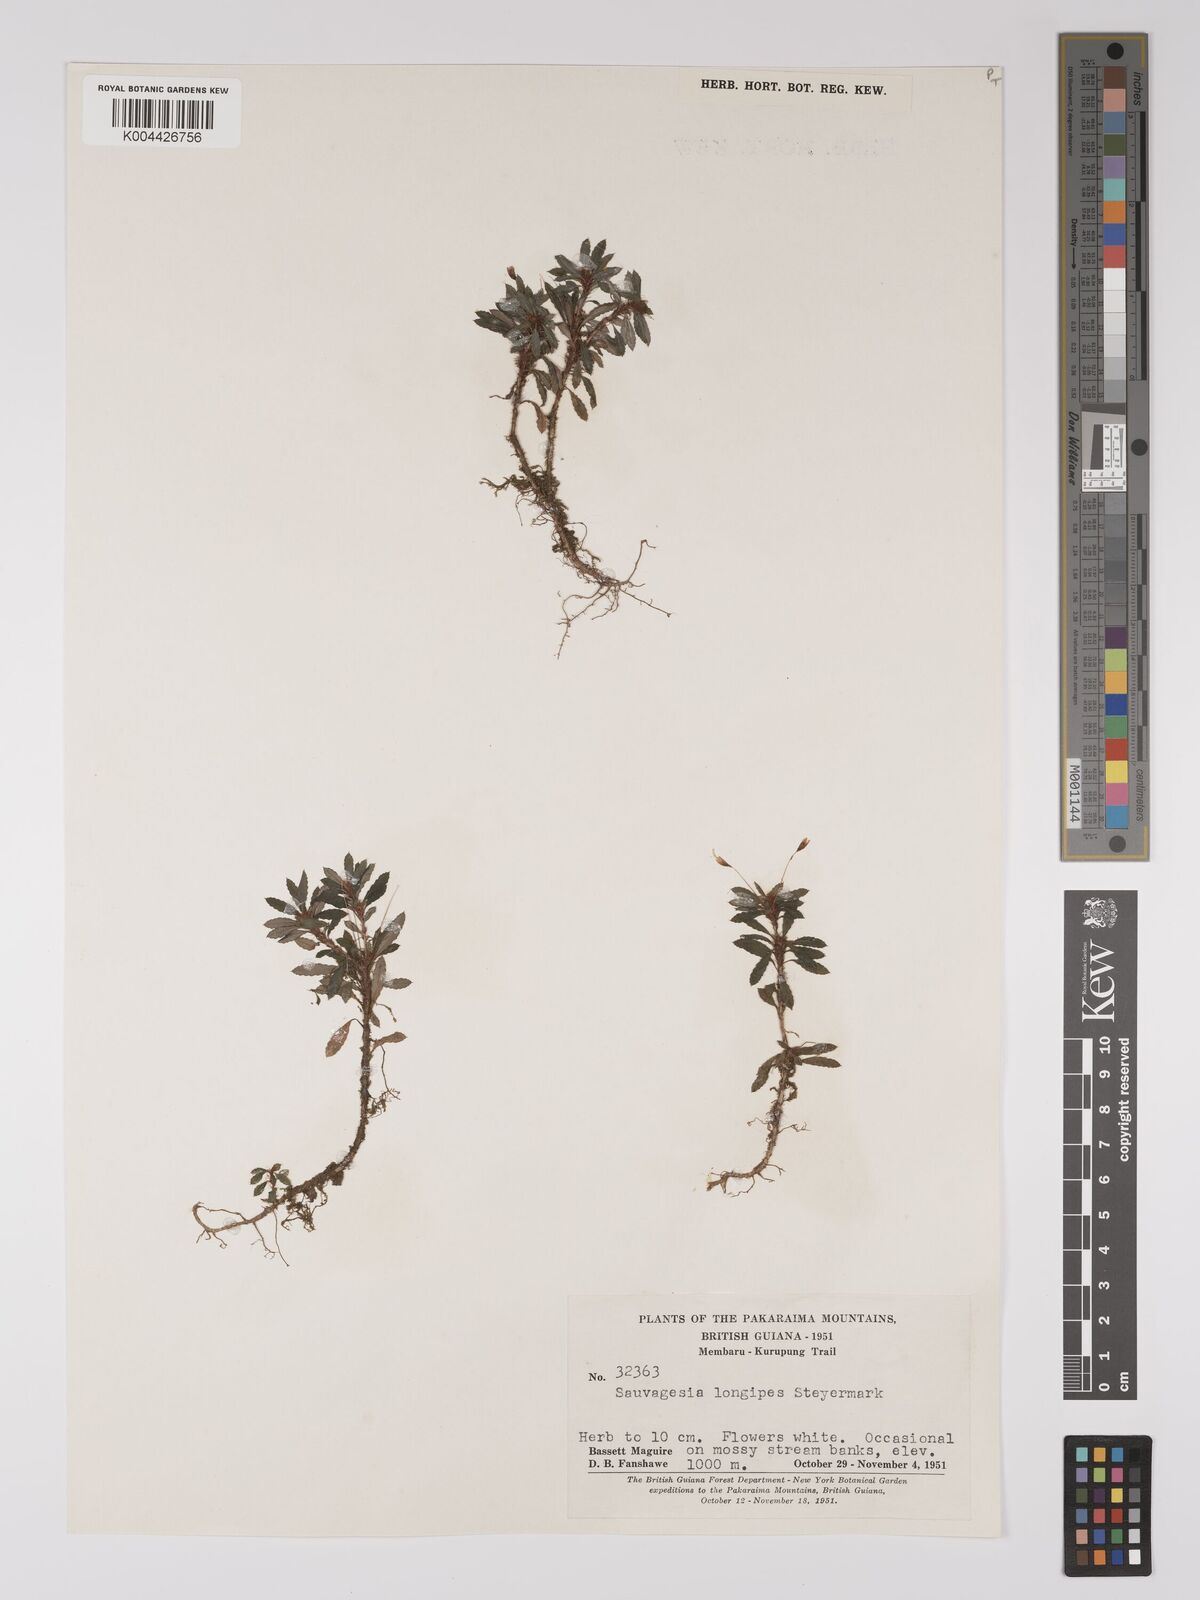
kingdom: Plantae
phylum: Tracheophyta
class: Magnoliopsida
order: Malpighiales
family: Ochnaceae
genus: Sauvagesia
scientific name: Sauvagesia longipes
